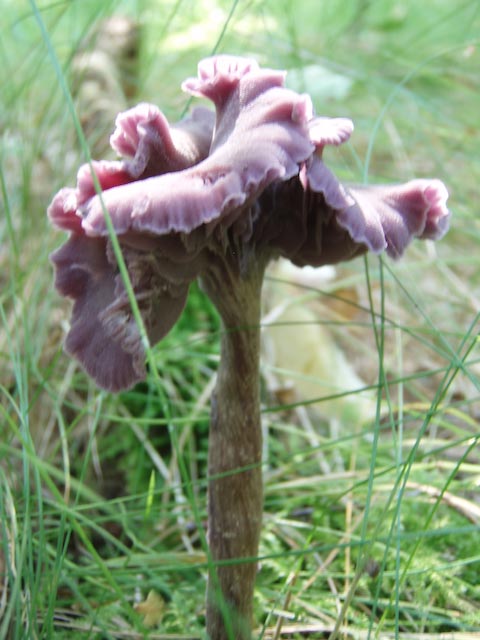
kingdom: Fungi
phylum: Basidiomycota
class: Agaricomycetes
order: Agaricales
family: Hydnangiaceae
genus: Laccaria
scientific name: Laccaria amethystina
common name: violet ametysthat
